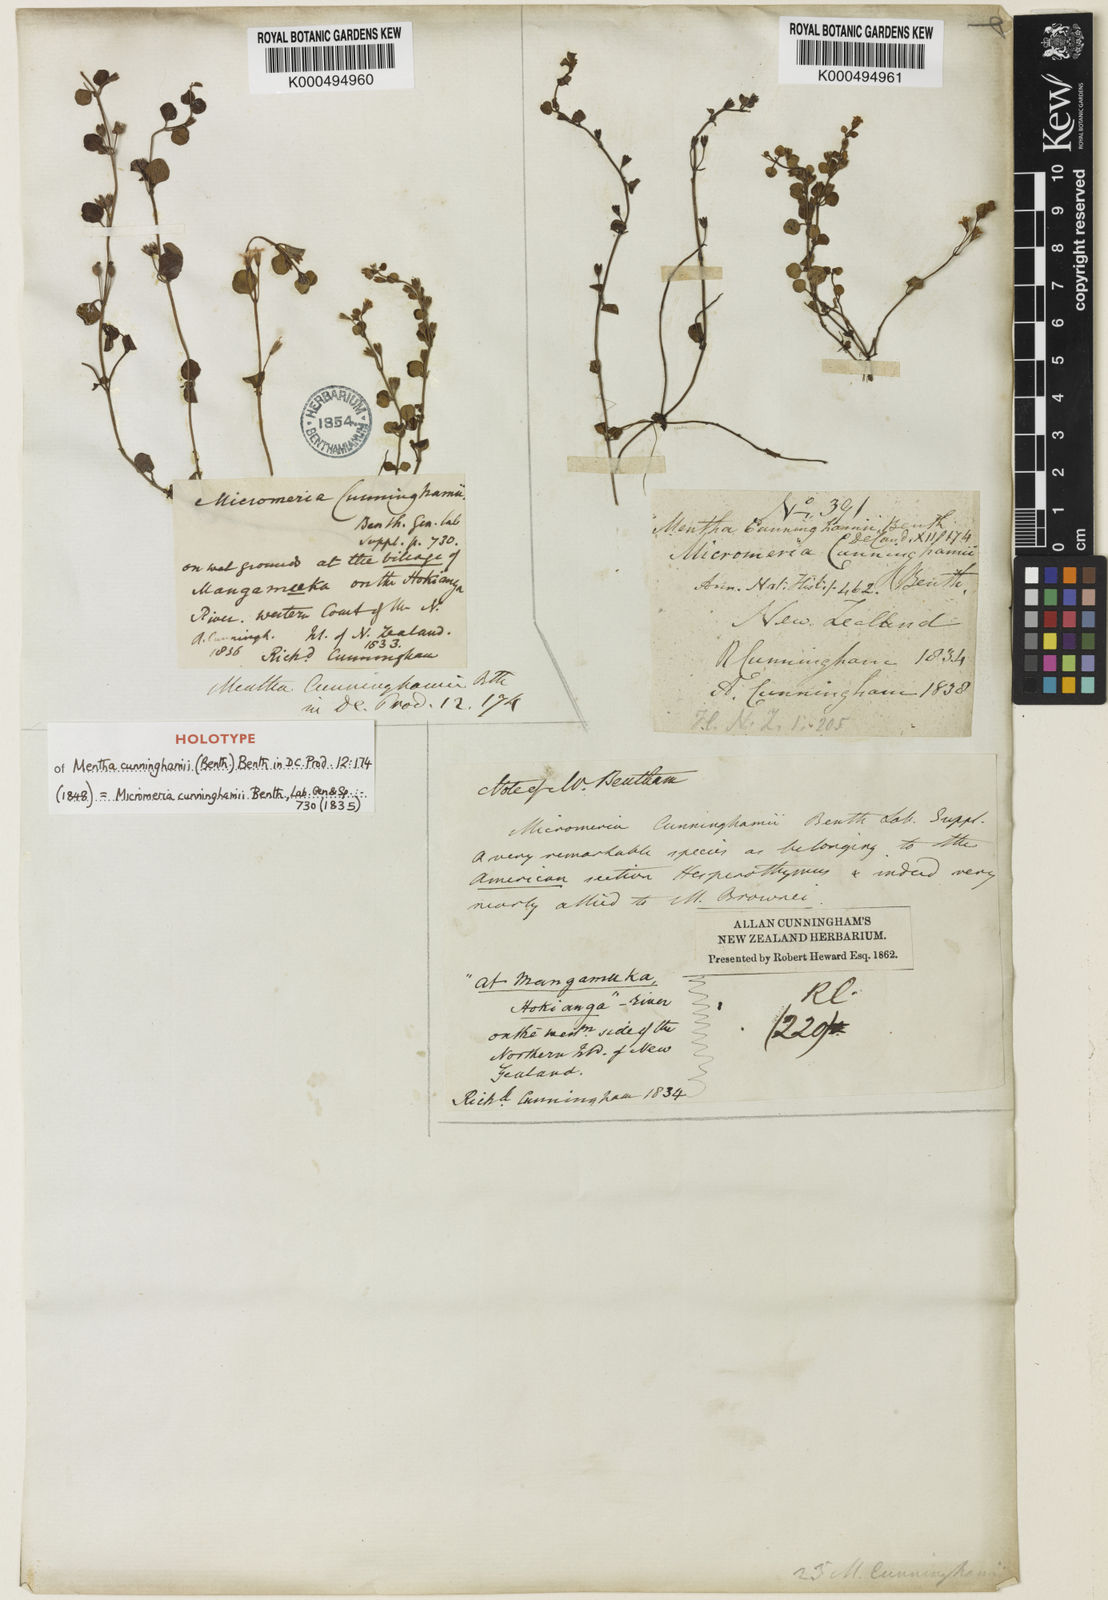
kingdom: Plantae
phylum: Tracheophyta
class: Magnoliopsida
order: Lamiales
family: Lamiaceae
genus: Mentha
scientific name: Mentha cunninghamii
